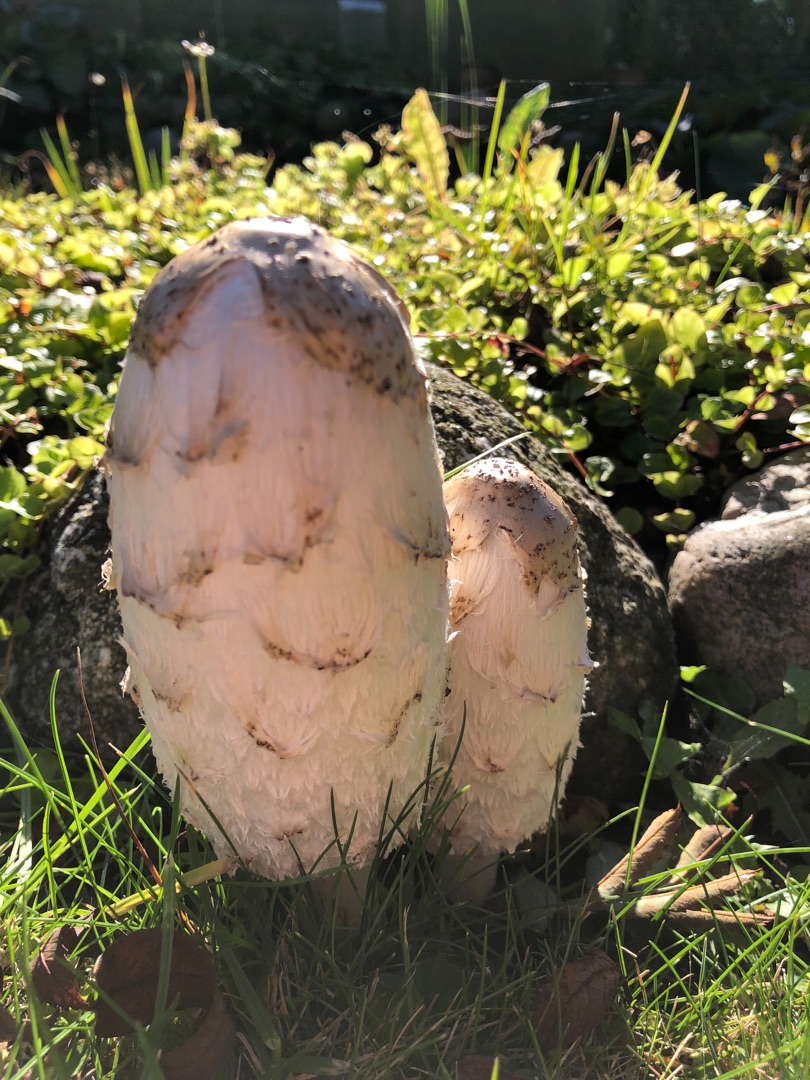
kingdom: Fungi
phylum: Basidiomycota
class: Agaricomycetes
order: Agaricales
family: Agaricaceae
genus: Coprinus
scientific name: Coprinus comatus
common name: Stor parykhat
